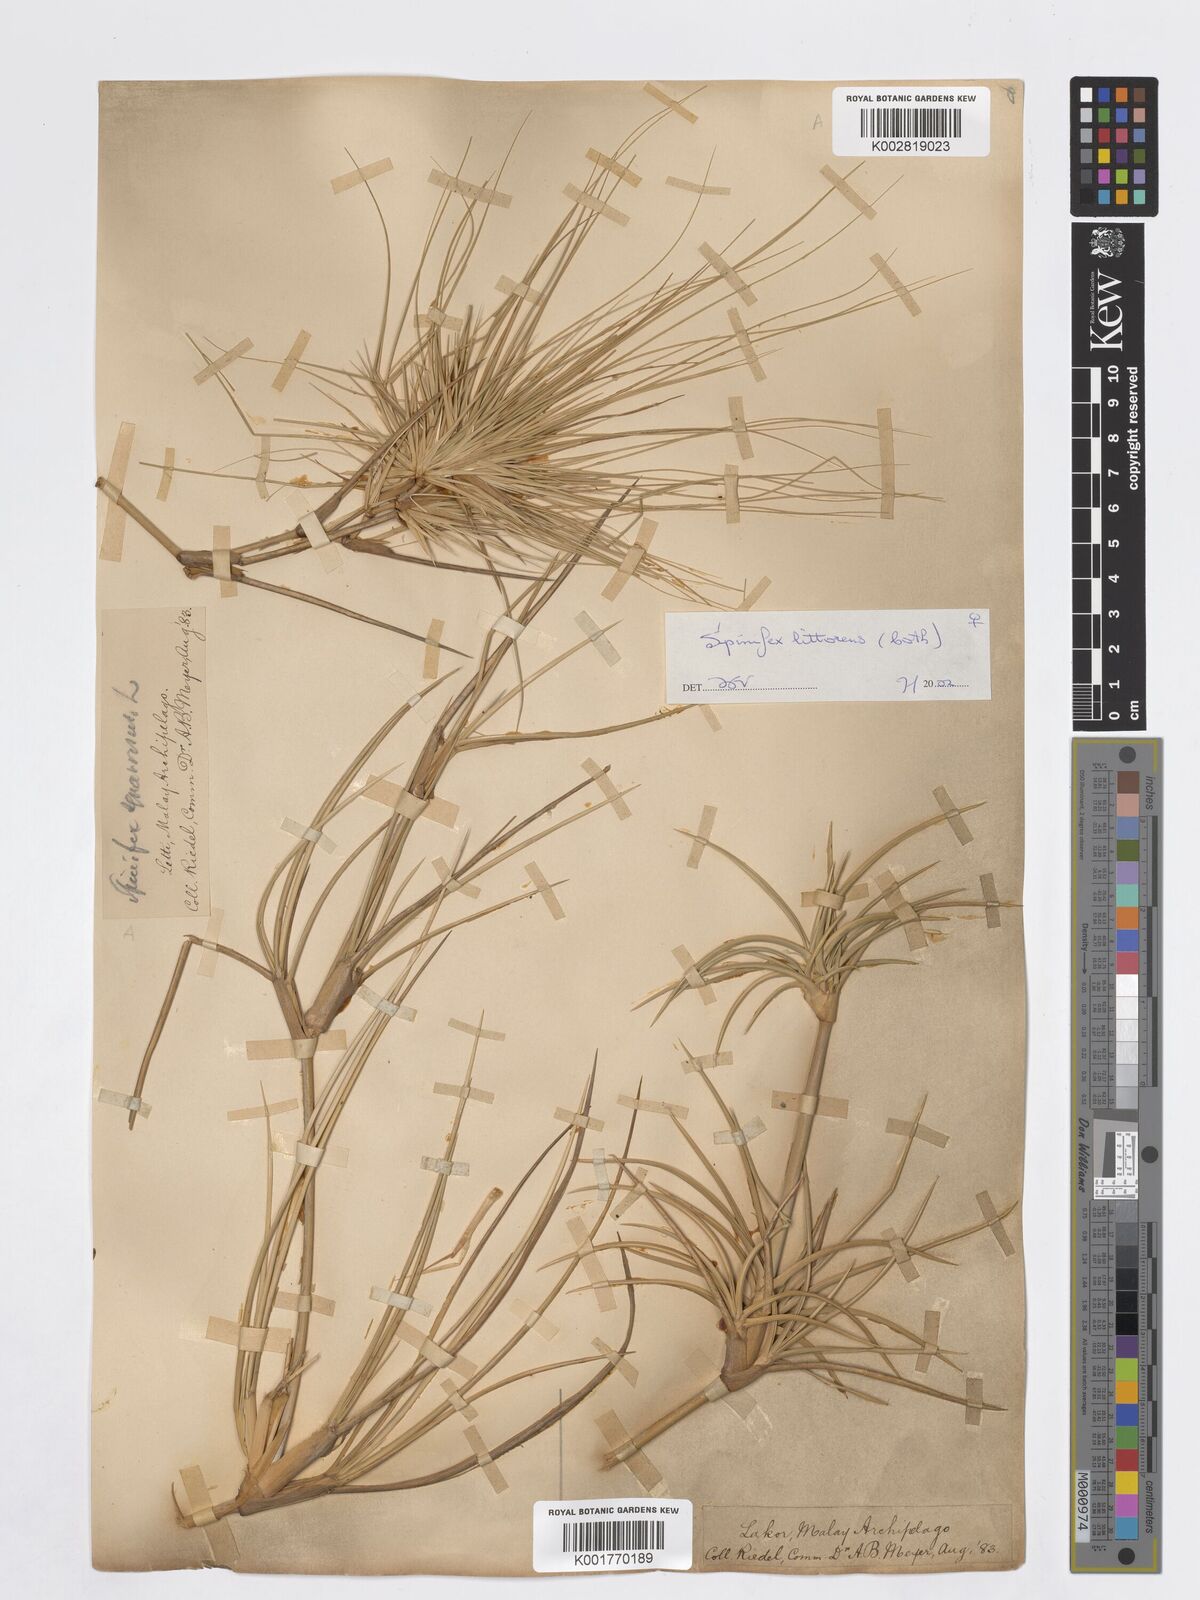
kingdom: Plantae
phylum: Tracheophyta
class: Liliopsida
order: Poales
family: Poaceae
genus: Spinifex
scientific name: Spinifex littoreus
